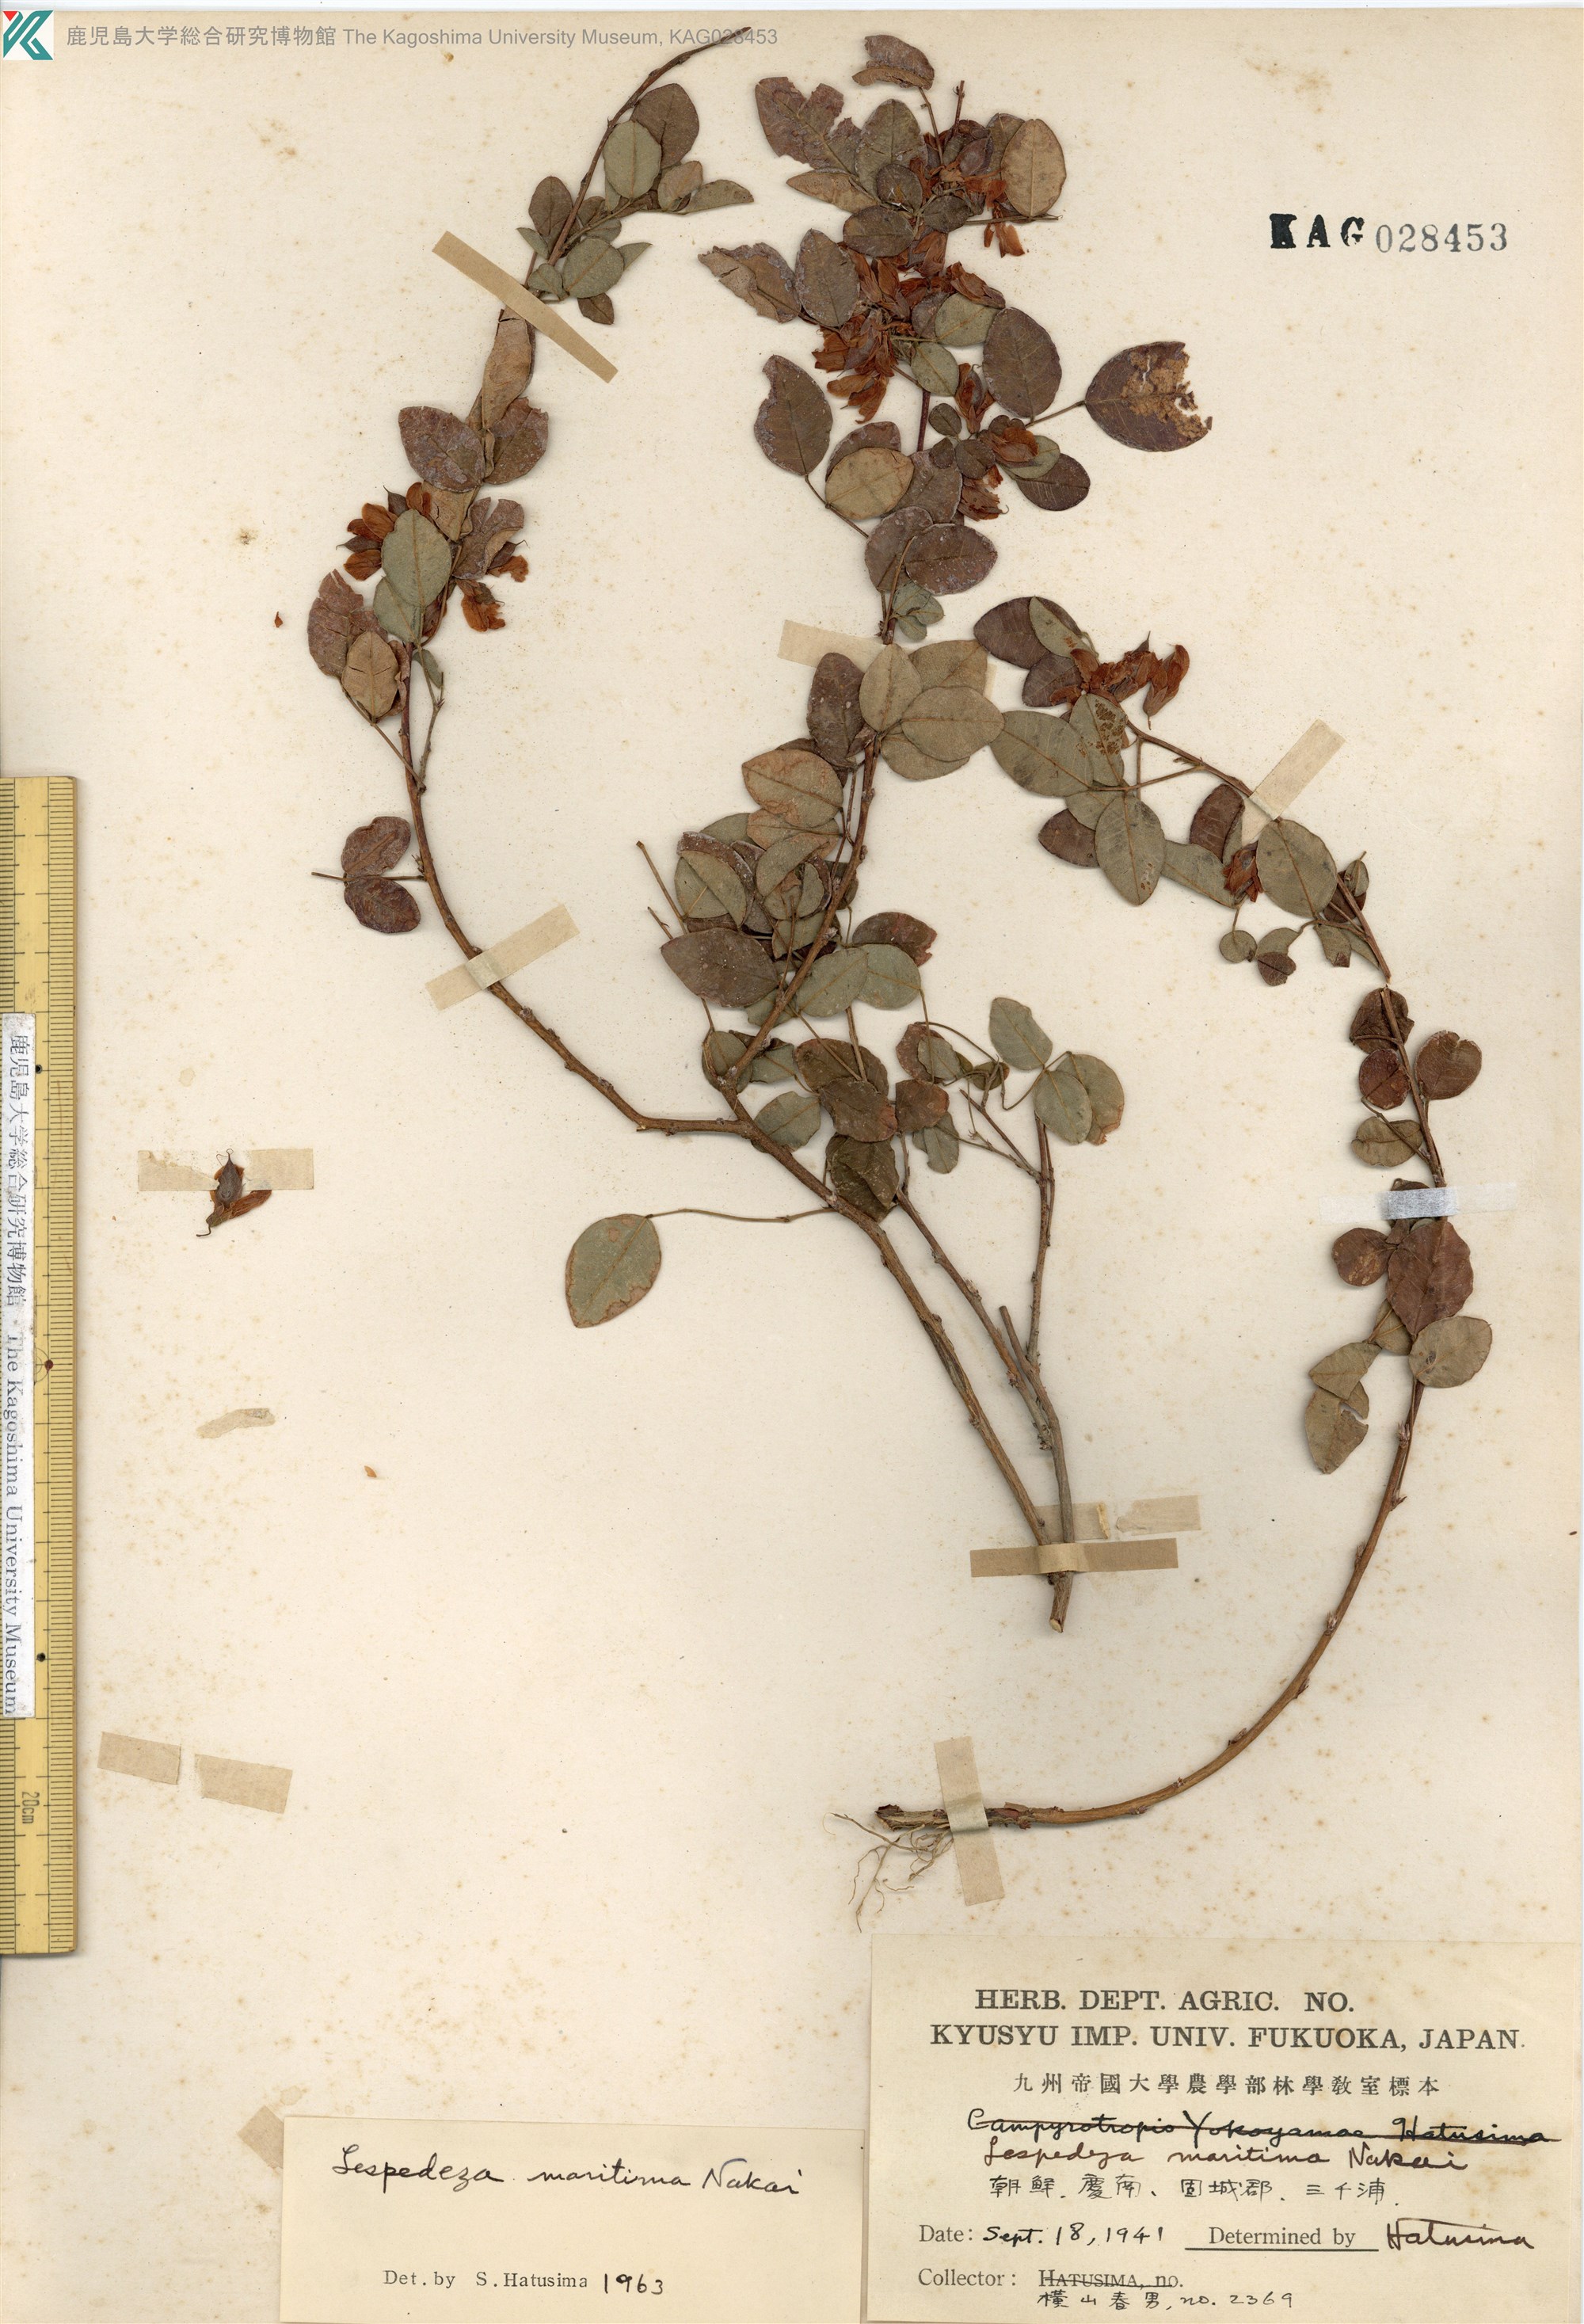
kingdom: Plantae
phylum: Tracheophyta
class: Magnoliopsida
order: Fabales
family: Fabaceae
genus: Lespedeza
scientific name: Lespedeza maritima
